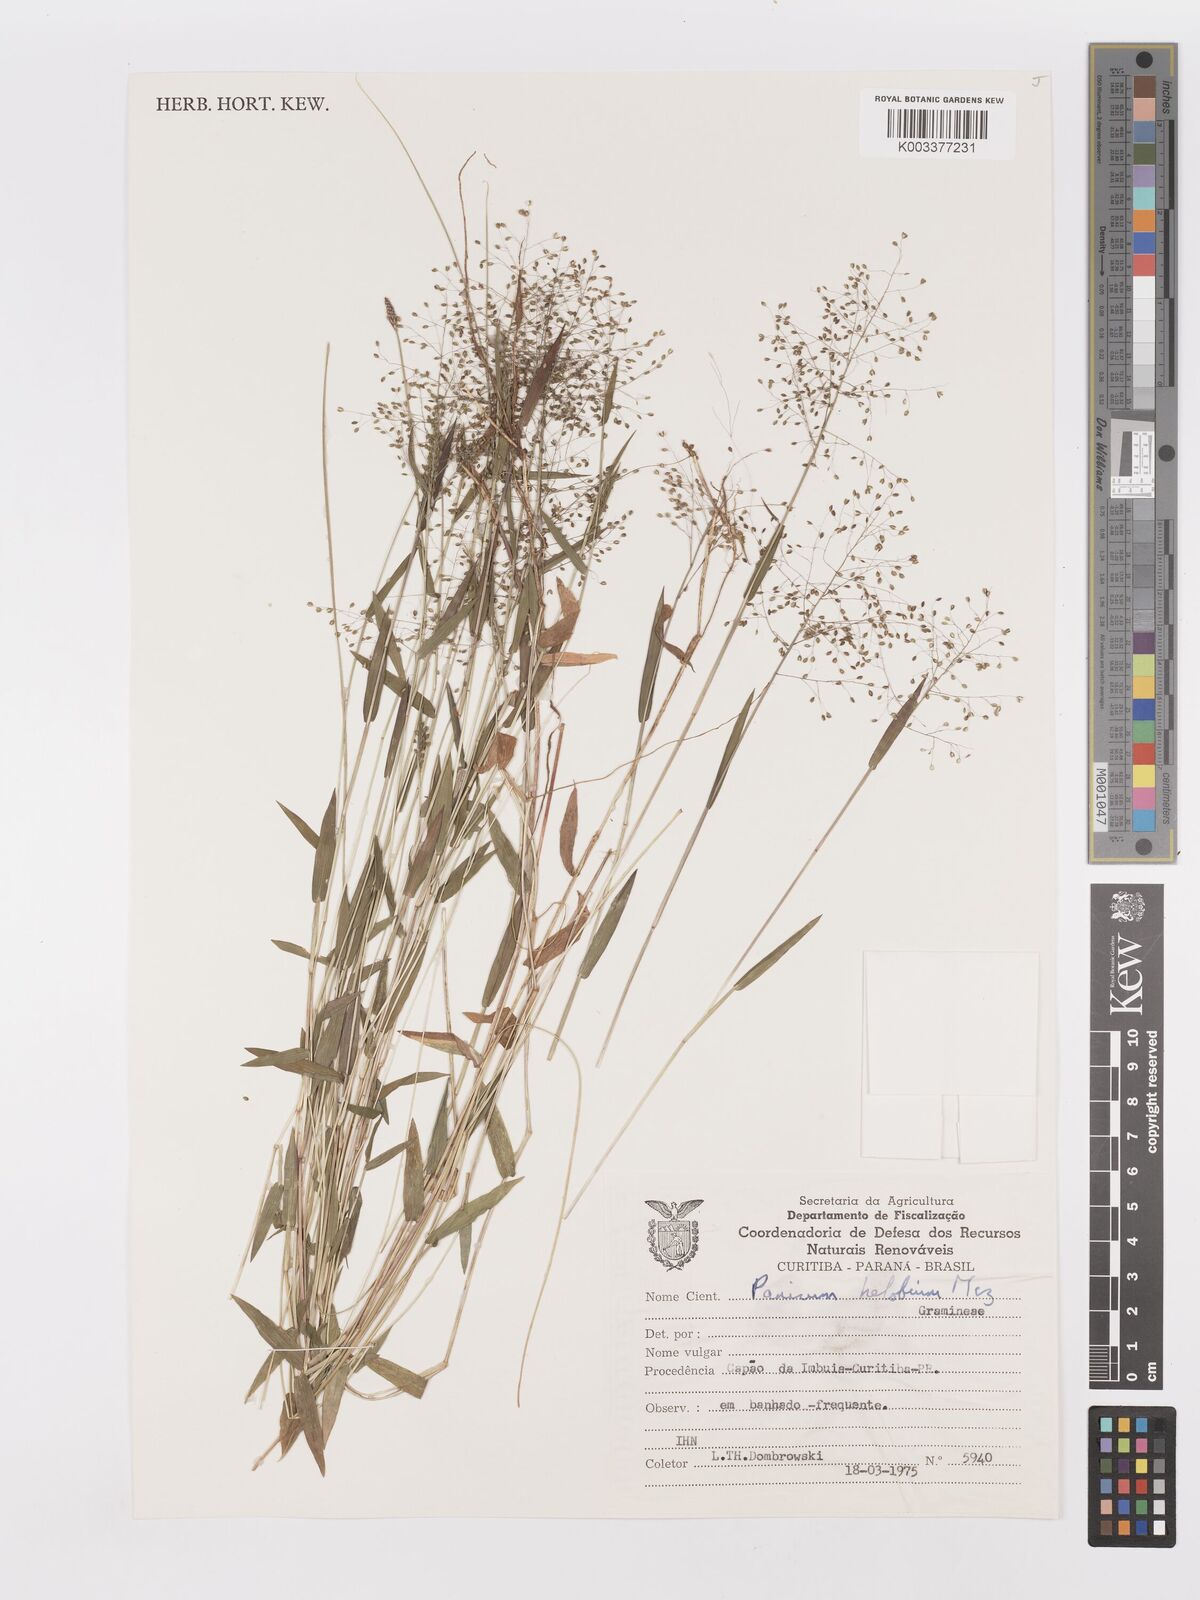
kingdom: Plantae
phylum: Tracheophyta
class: Liliopsida
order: Poales
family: Poaceae
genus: Trichanthecium
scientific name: Trichanthecium schwackeanum
